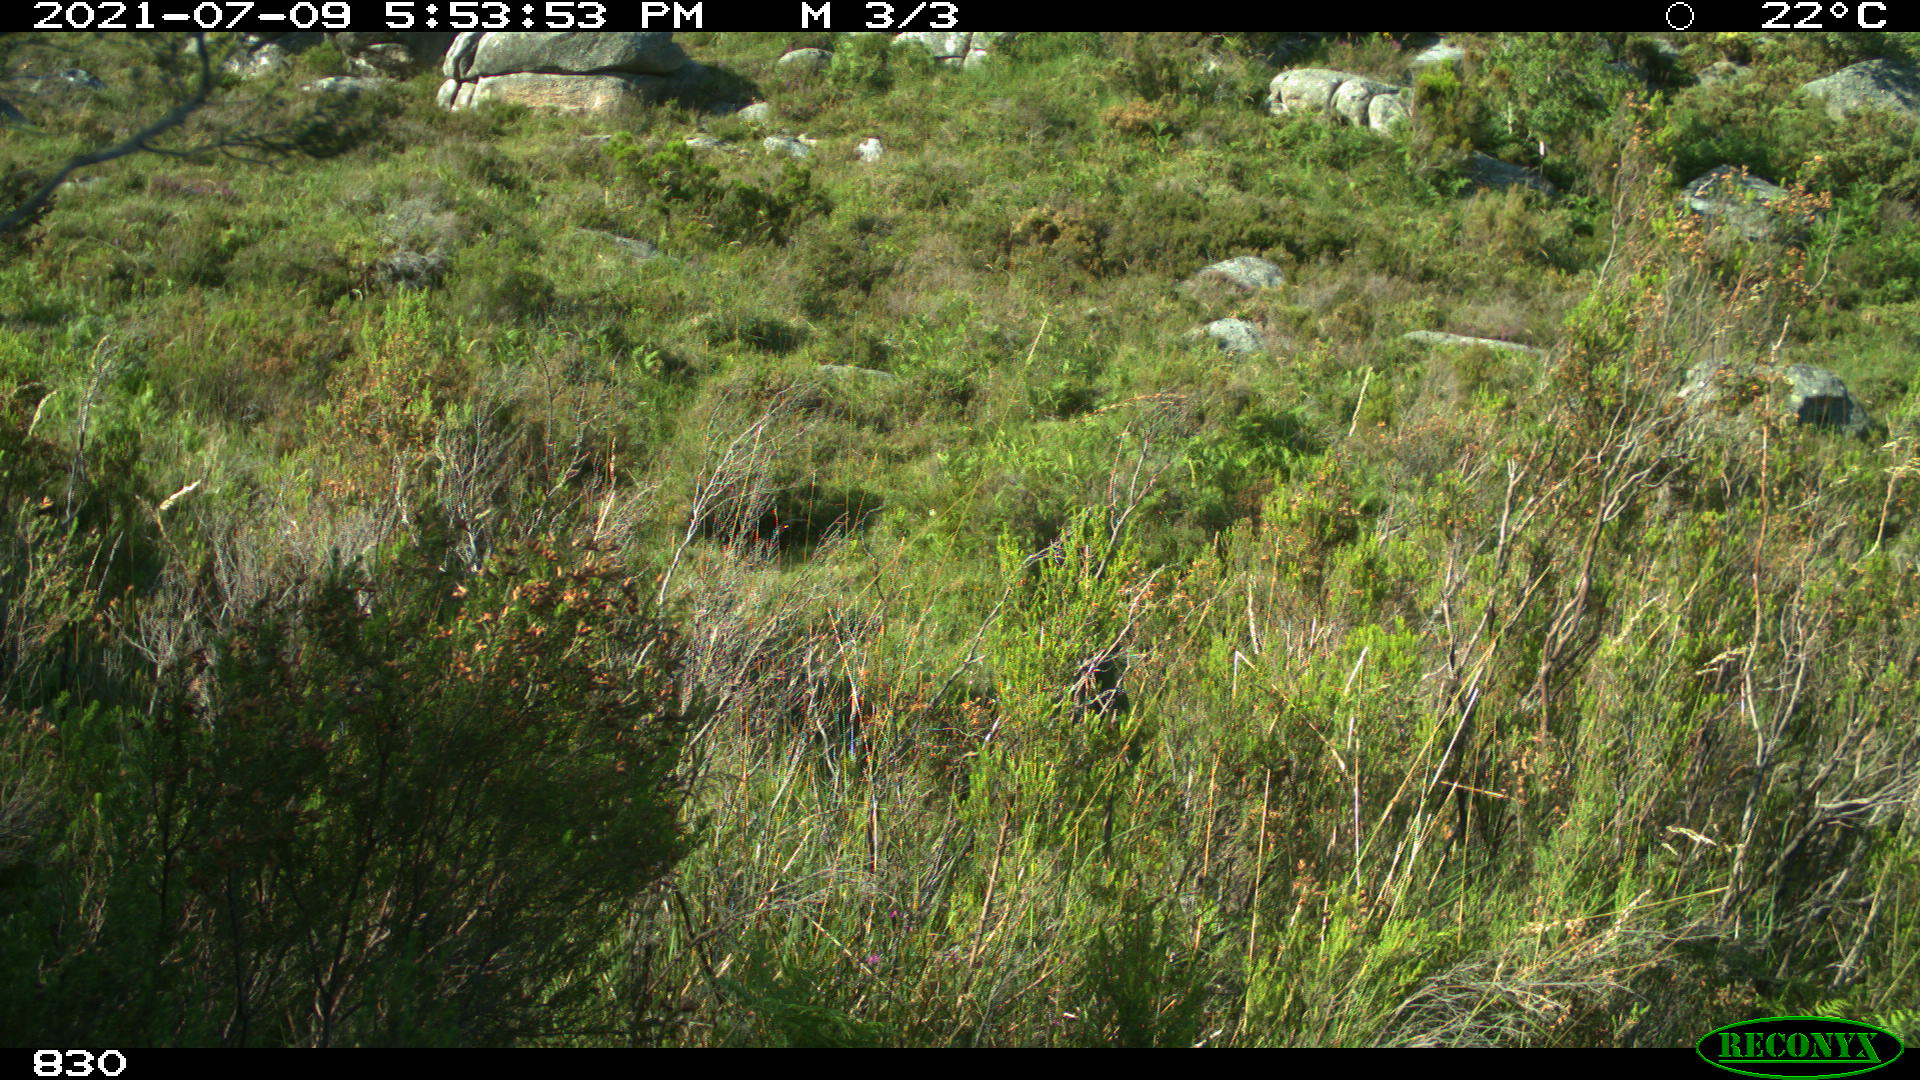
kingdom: Animalia
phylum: Chordata
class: Mammalia
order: Artiodactyla
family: Bovidae
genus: Bos
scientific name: Bos taurus
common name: Domesticated cattle
